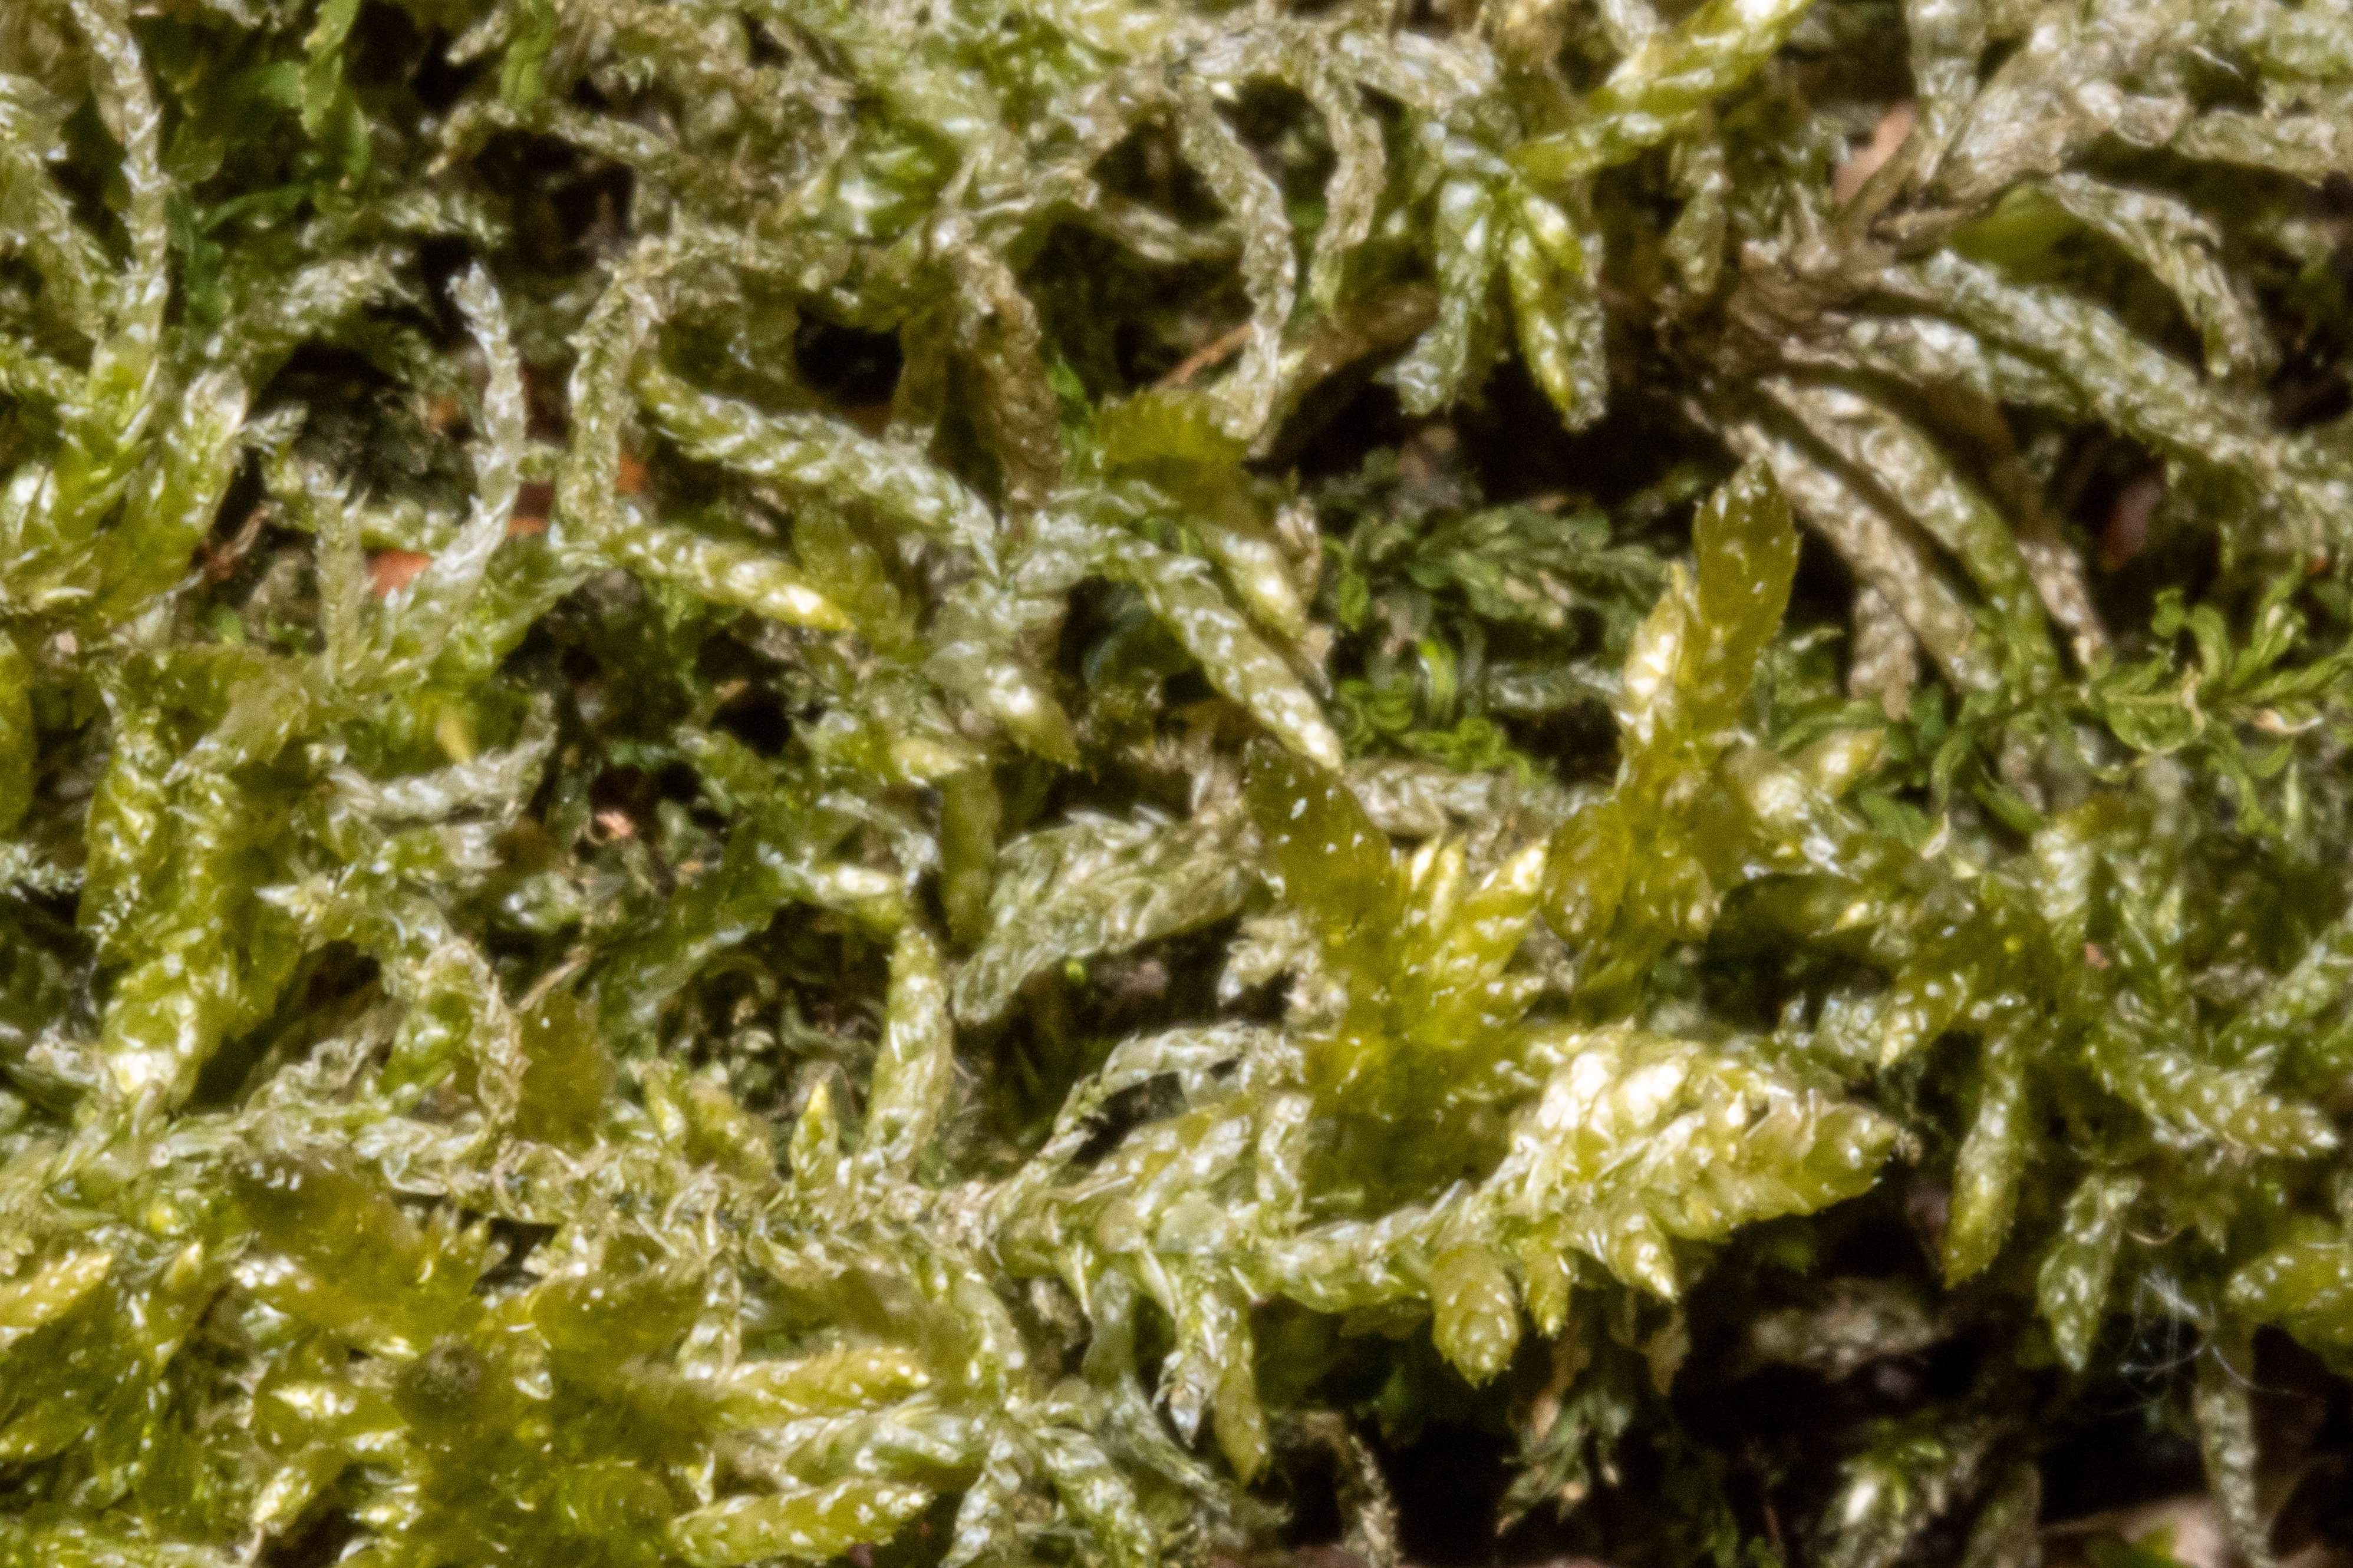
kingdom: Plantae
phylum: Bryophyta
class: Bryopsida
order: Hypnales
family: Brachytheciaceae
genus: Pseudoscleropodium
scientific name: Pseudoscleropodium purum
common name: Hulbladet fedtmos
